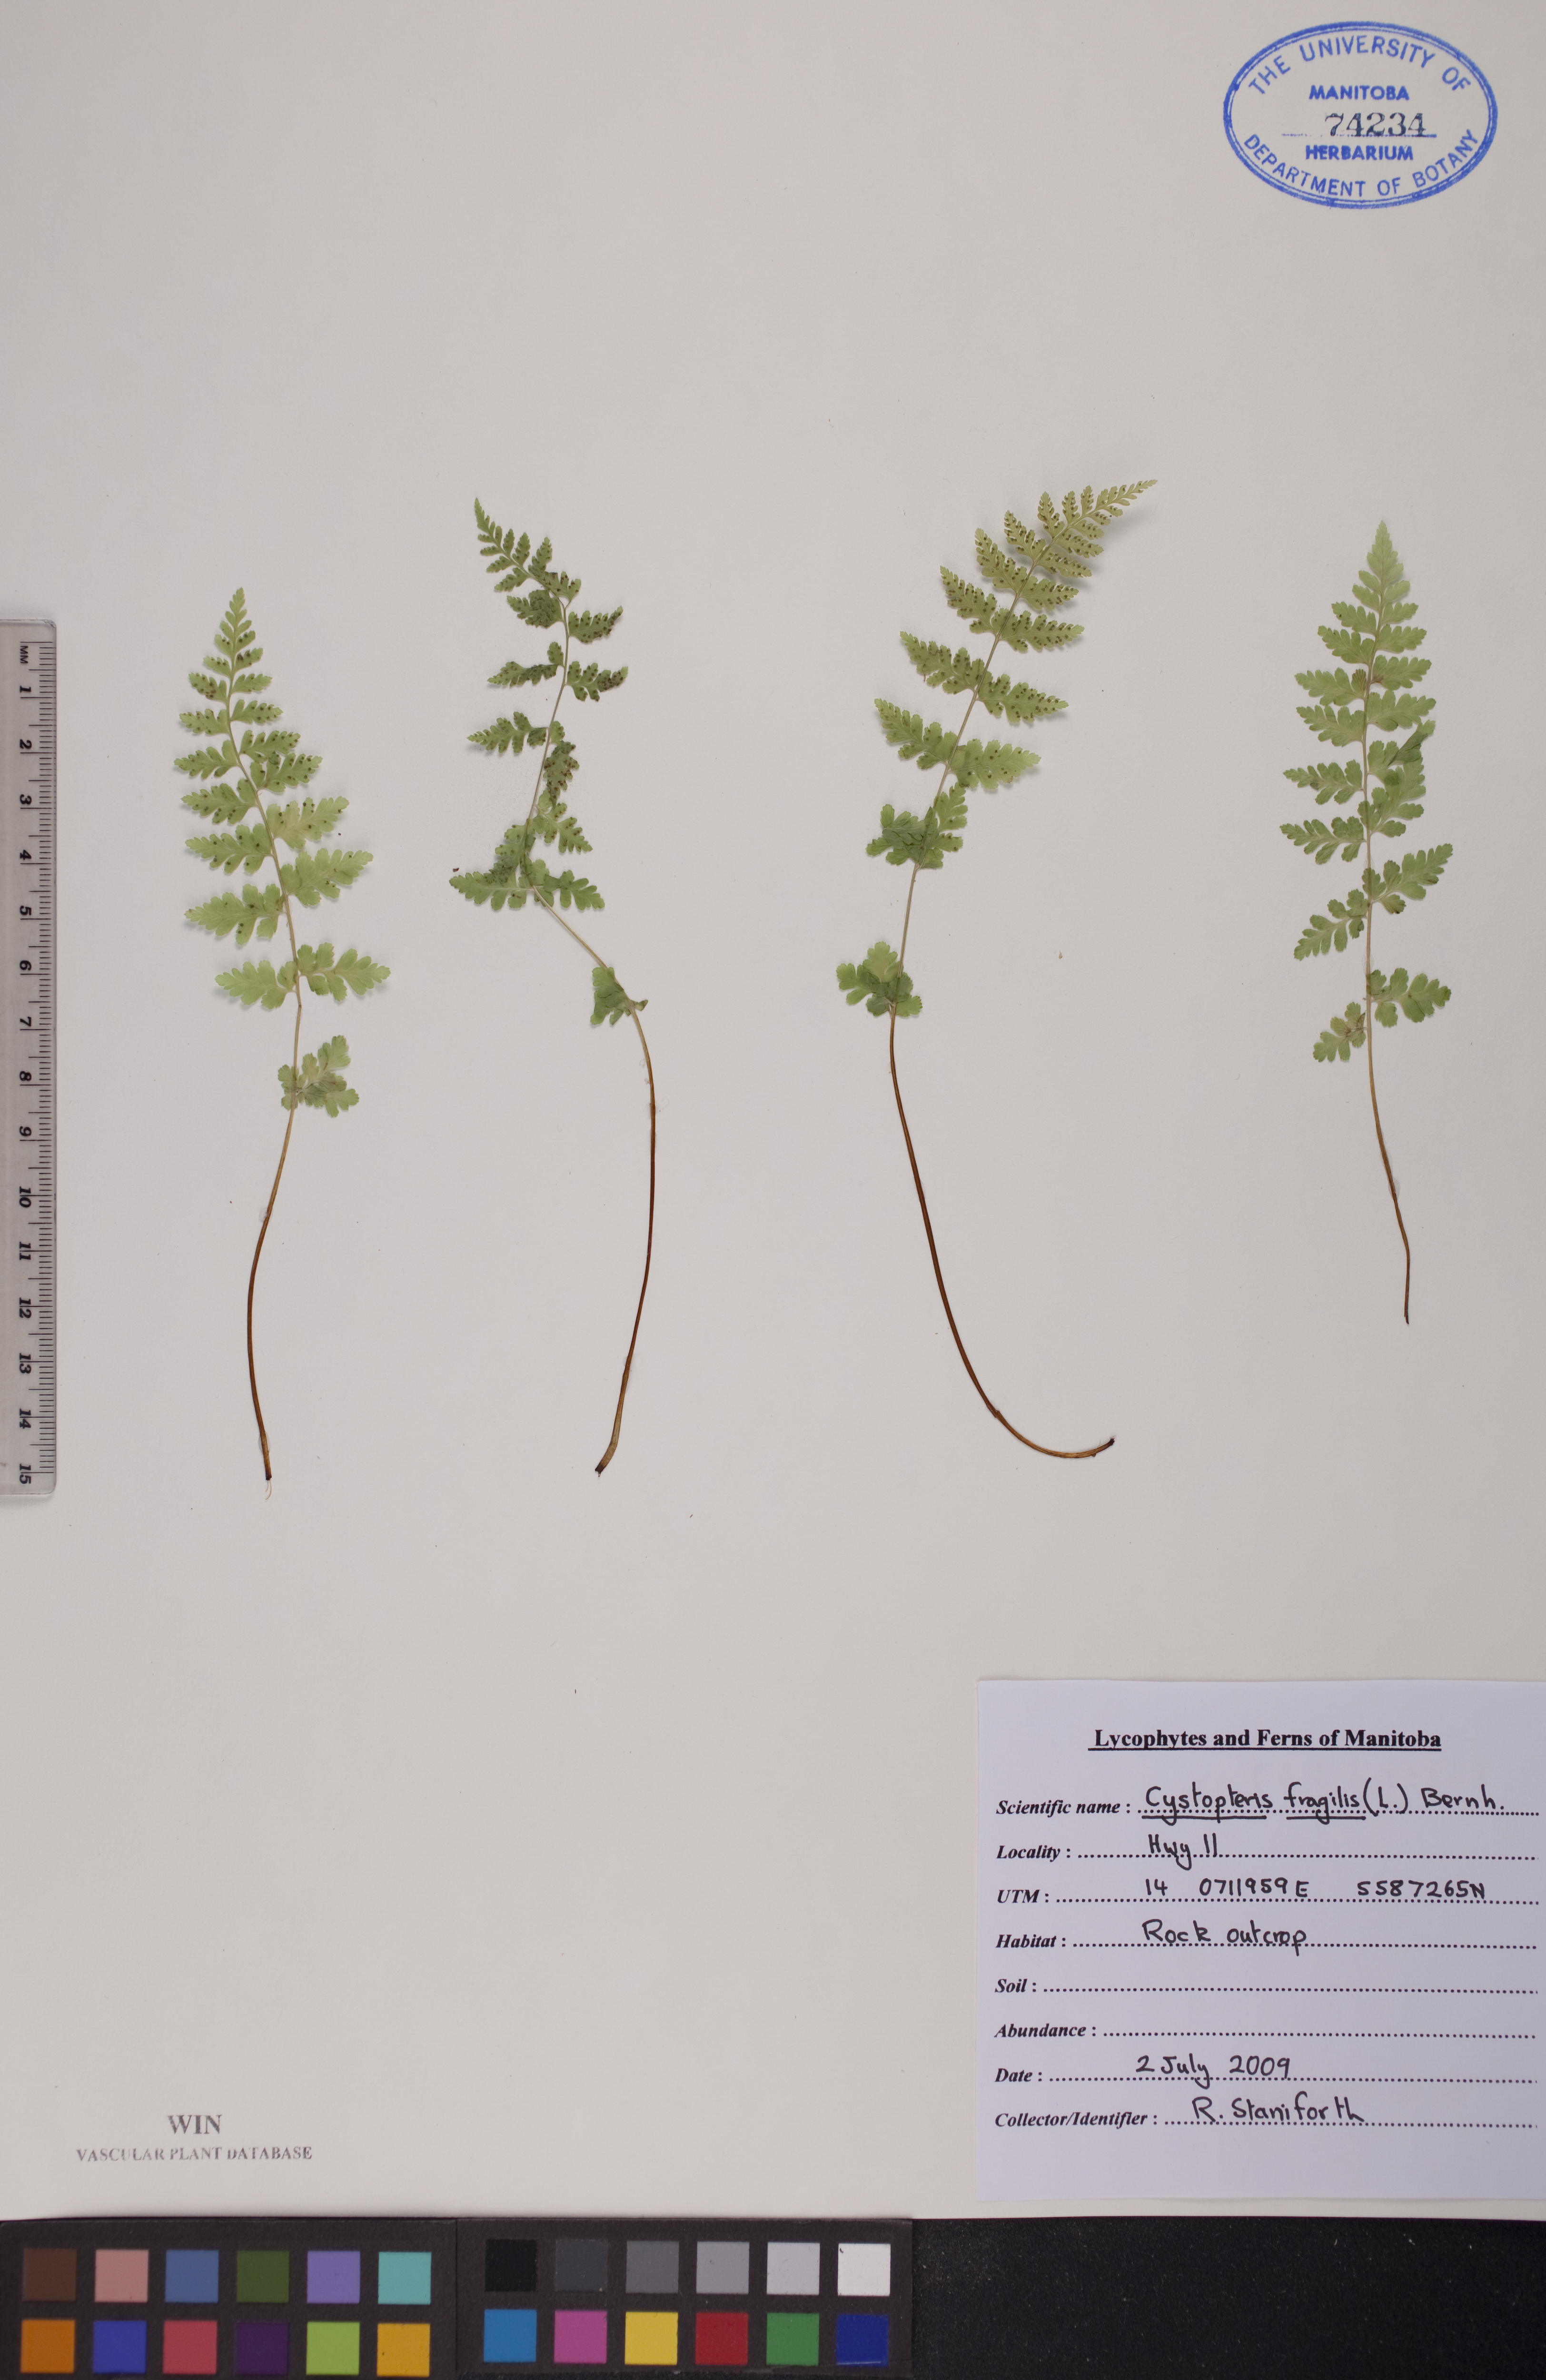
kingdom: Plantae
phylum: Tracheophyta
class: Polypodiopsida
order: Polypodiales
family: Cystopteridaceae
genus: Cystopteris
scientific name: Cystopteris fragilis
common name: Brittle bladder fern
